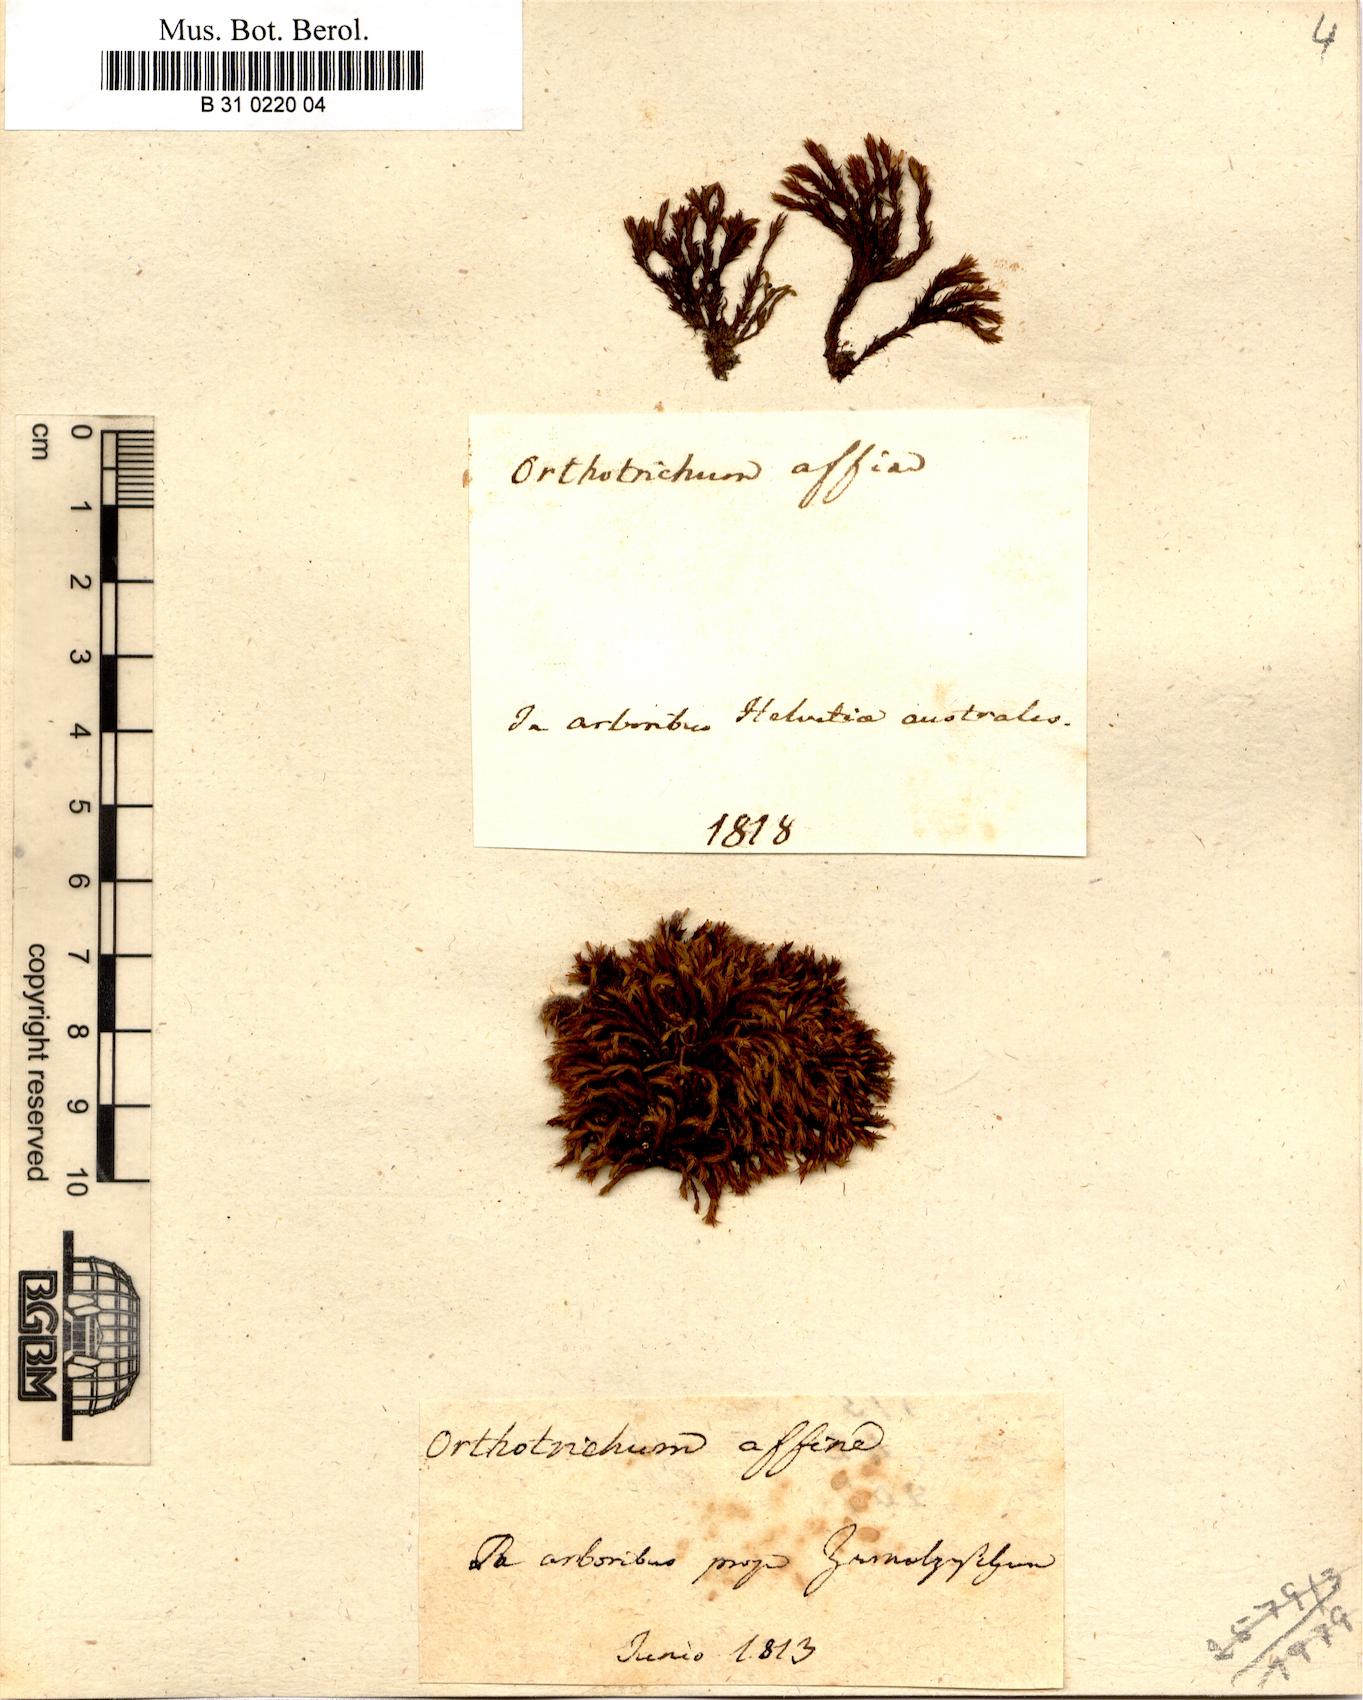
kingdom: Plantae
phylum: Bryophyta
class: Bryopsida
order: Orthotrichales
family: Orthotrichaceae
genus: Lewinskya
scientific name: Lewinskya affinis
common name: Wood bristle-moss
